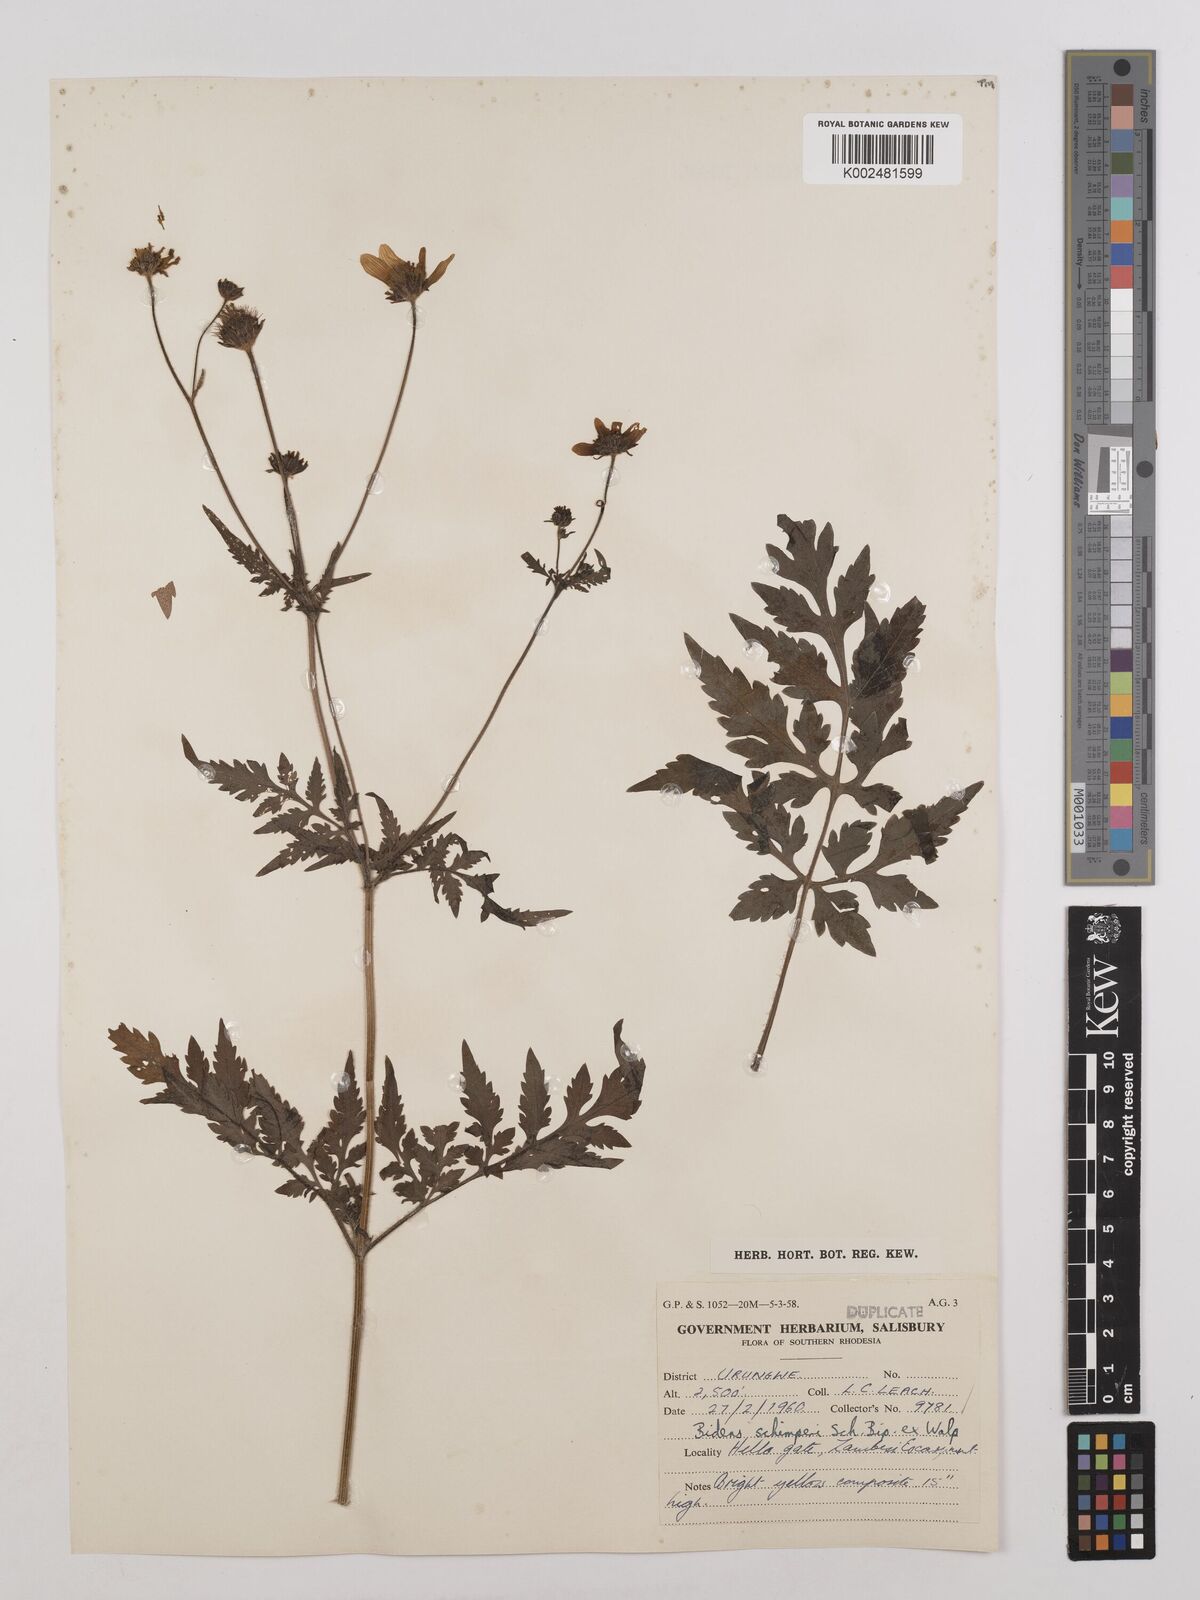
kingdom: Plantae
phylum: Tracheophyta
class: Magnoliopsida
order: Asterales
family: Asteraceae
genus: Bidens
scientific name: Bidens schimperi
